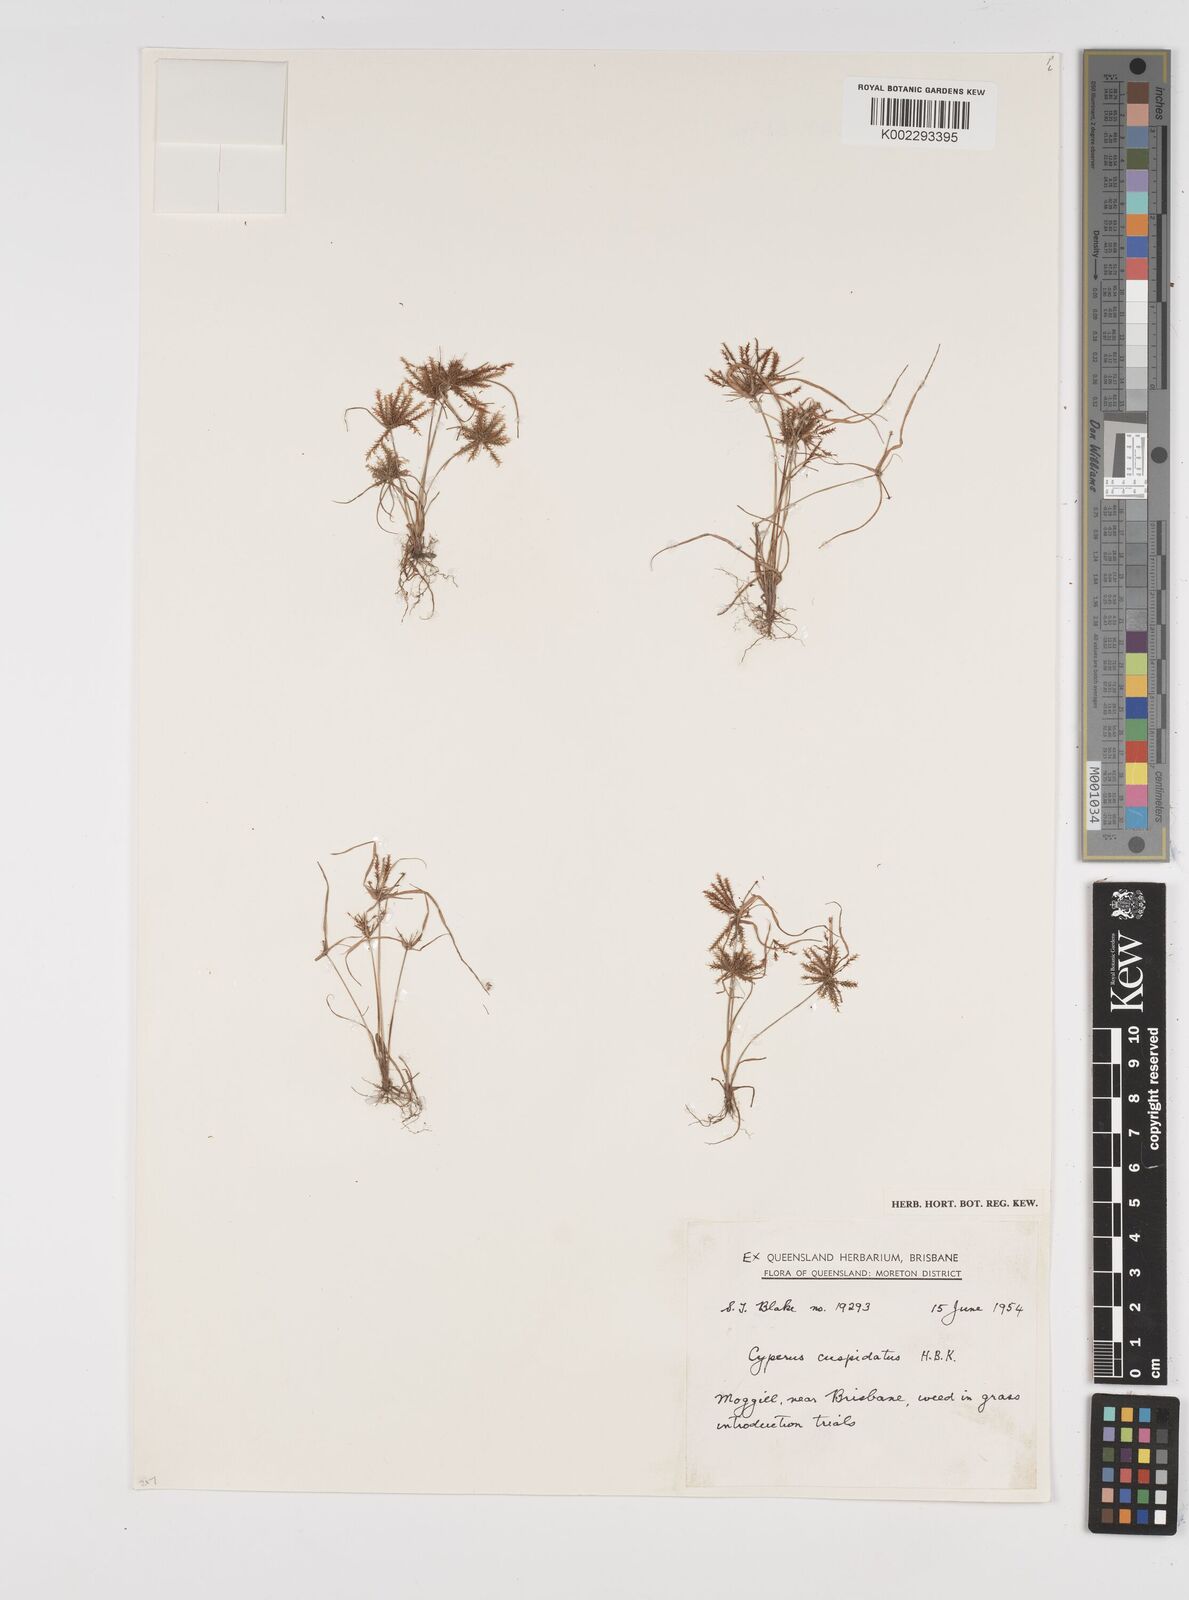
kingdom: Plantae
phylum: Tracheophyta
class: Liliopsida
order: Poales
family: Cyperaceae
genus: Cyperus
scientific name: Cyperus cuspidatus
